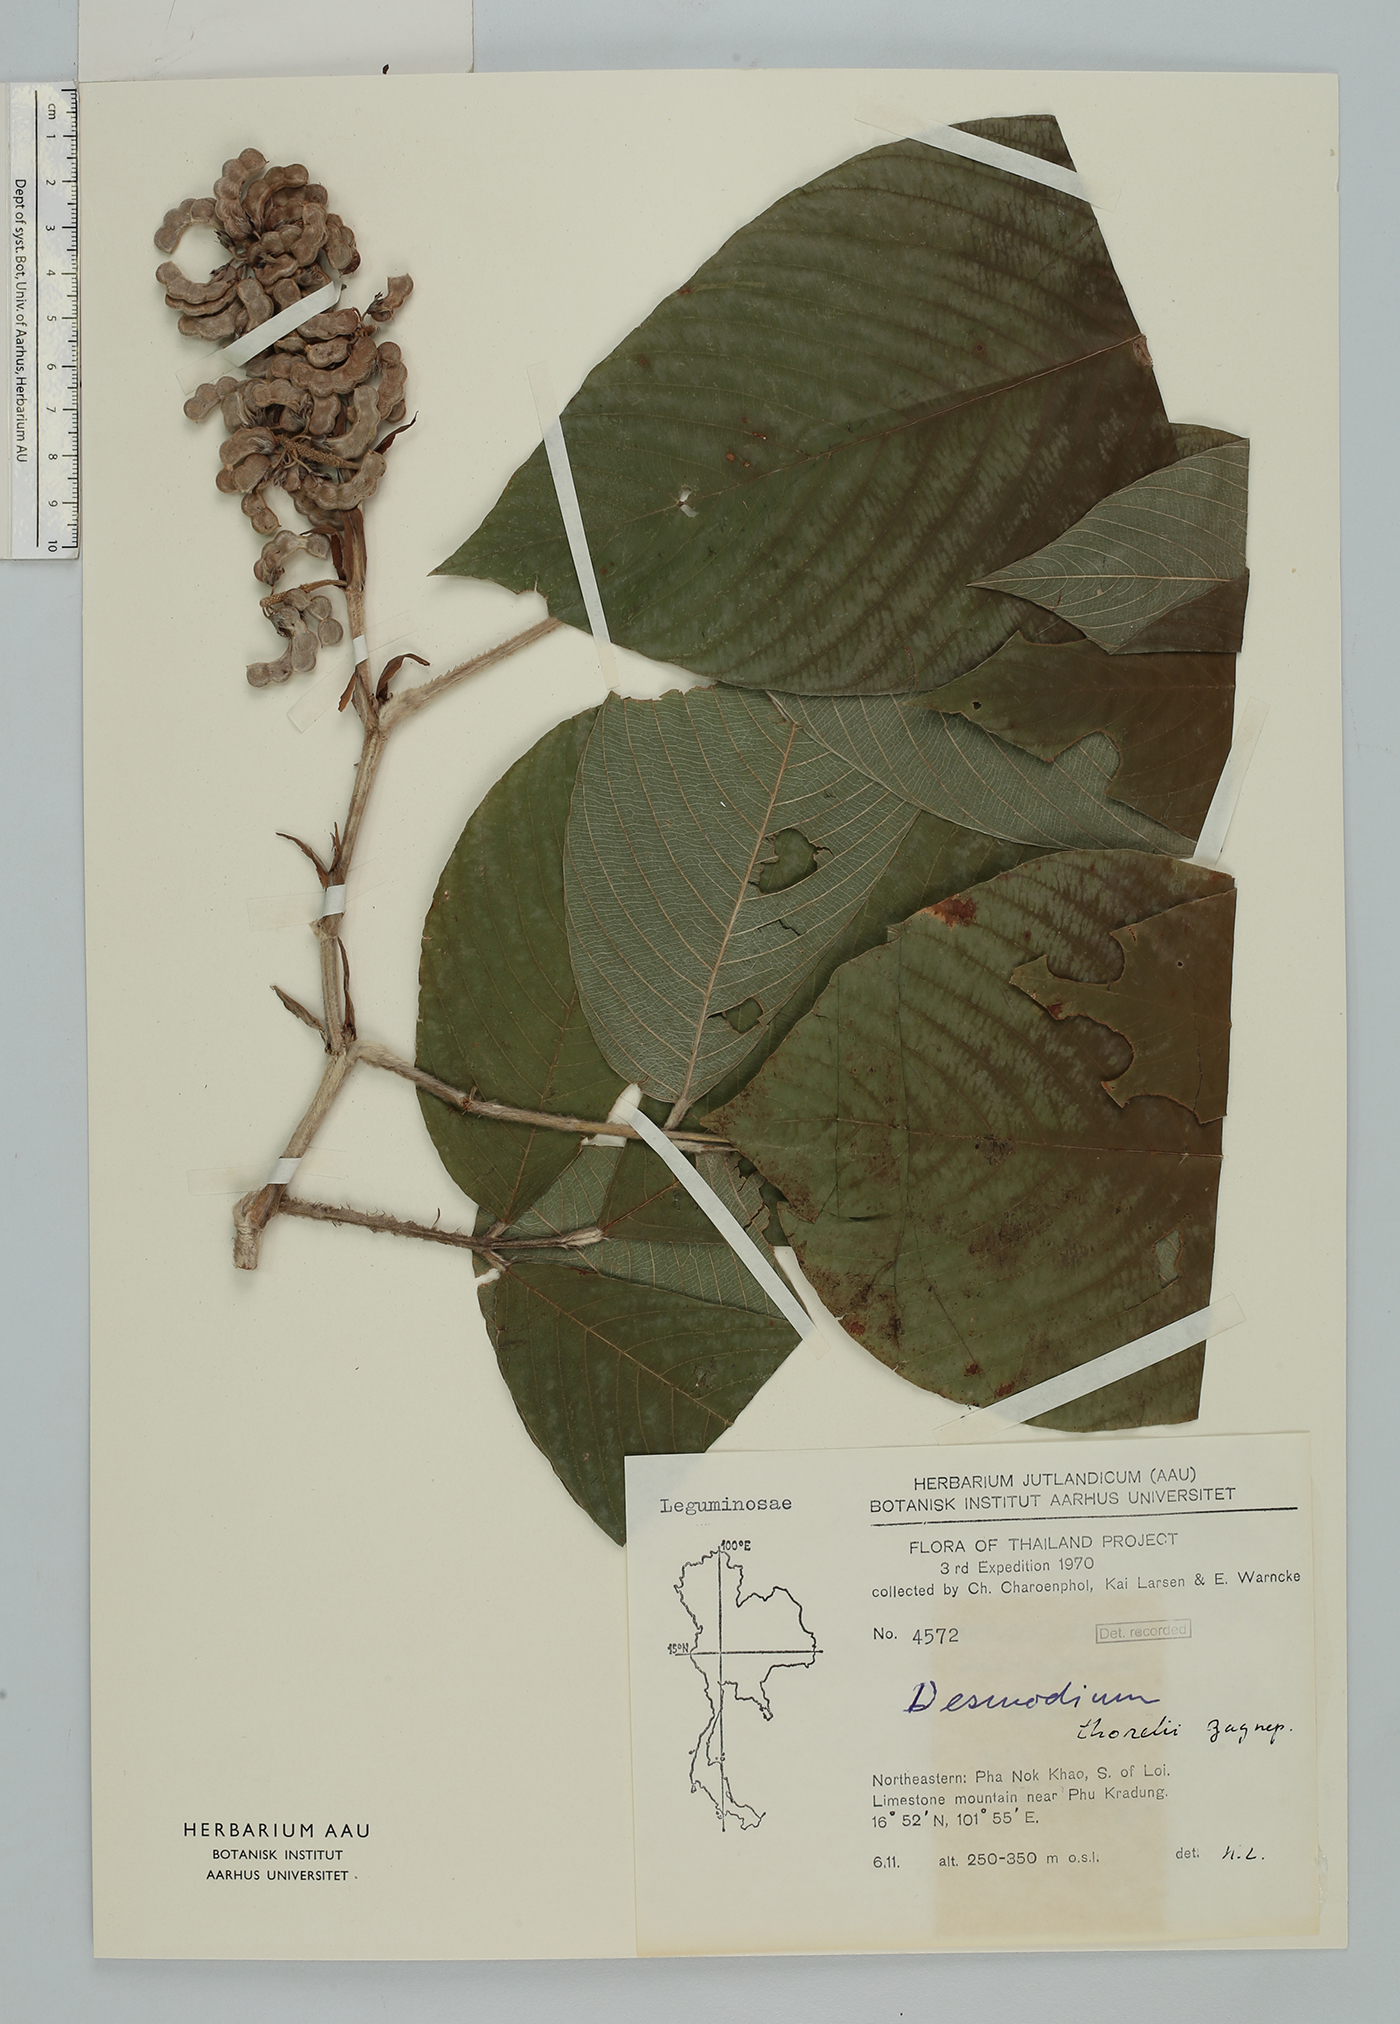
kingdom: Plantae
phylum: Tracheophyta
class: Magnoliopsida
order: Fabales
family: Fabaceae
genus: Dendrolobium
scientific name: Dendrolobium thorelii
